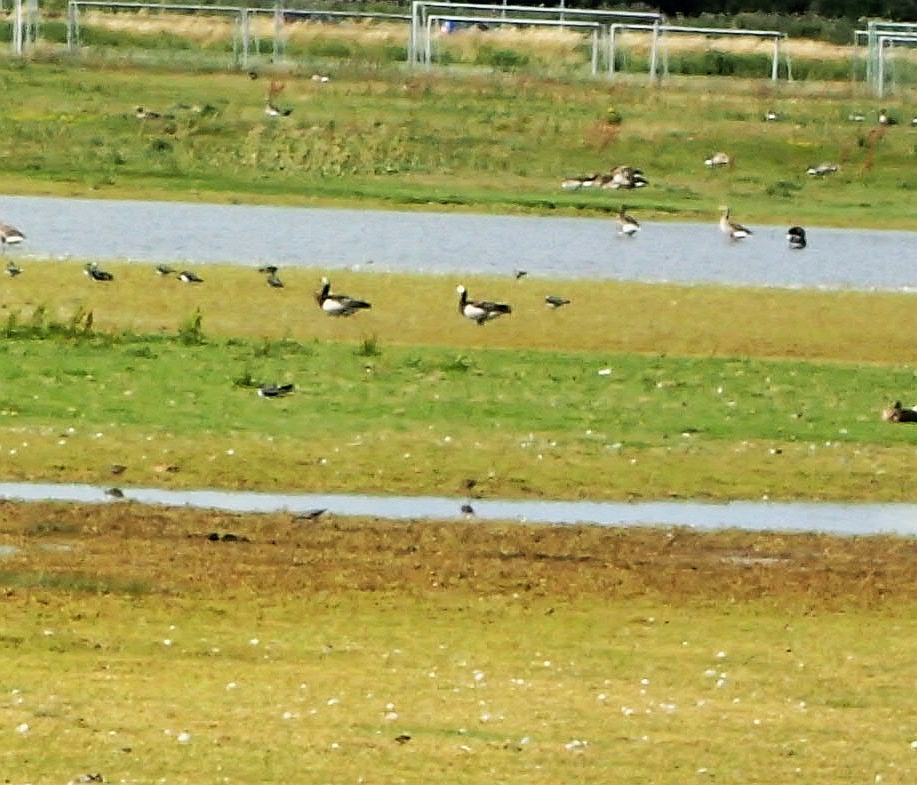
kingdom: Animalia
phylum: Chordata
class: Aves
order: Anseriformes
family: Anatidae
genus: Branta
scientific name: Branta leucopsis
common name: Bramgås
